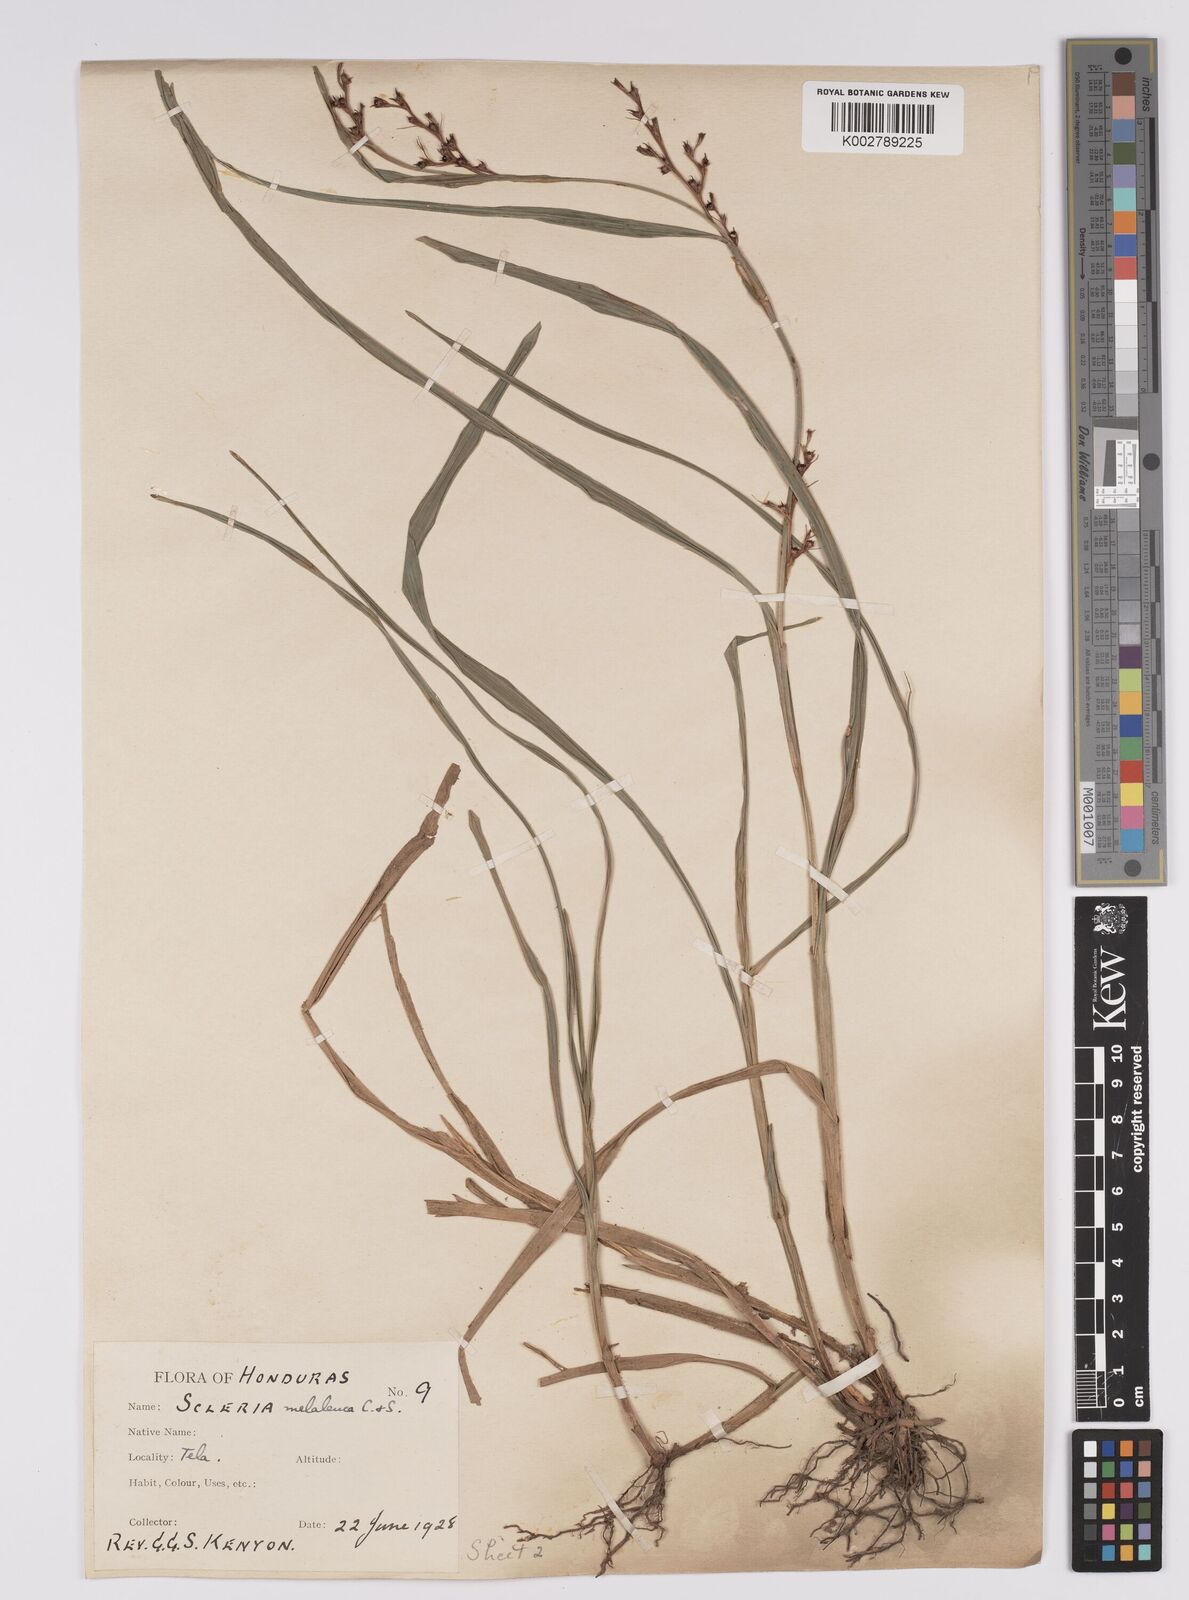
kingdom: Plantae
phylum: Tracheophyta
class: Liliopsida
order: Poales
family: Cyperaceae
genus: Scleria
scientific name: Scleria gaertneri
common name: Cortadera blanca
